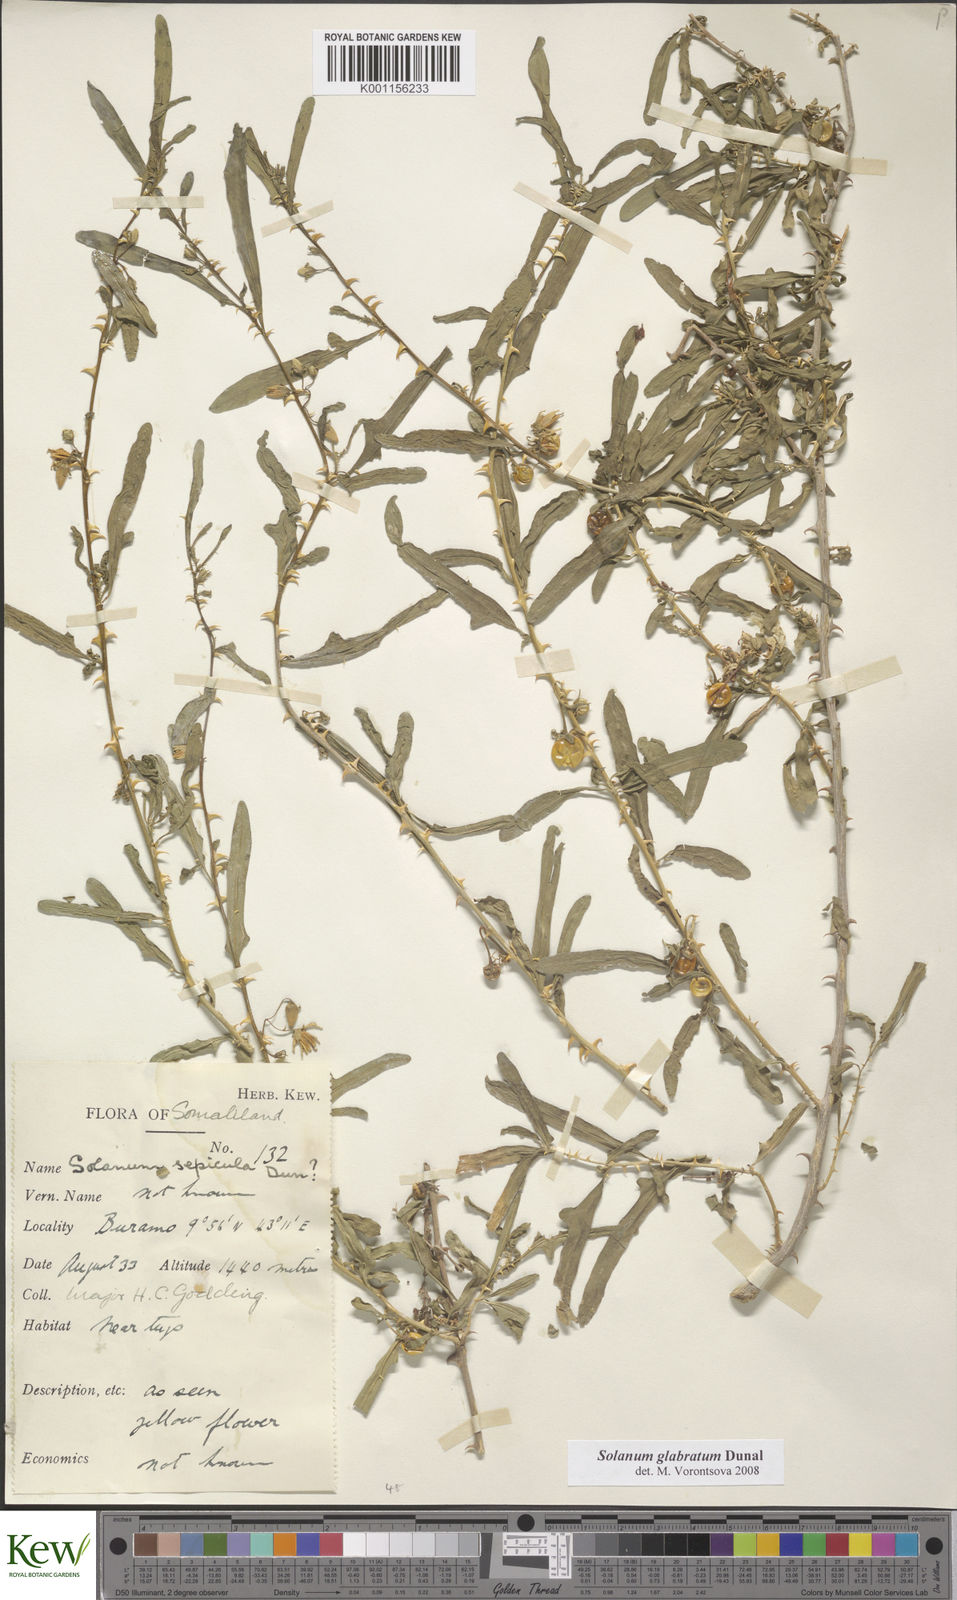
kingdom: Plantae
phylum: Tracheophyta
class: Magnoliopsida
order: Solanales
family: Solanaceae
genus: Solanum
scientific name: Solanum glabratum
